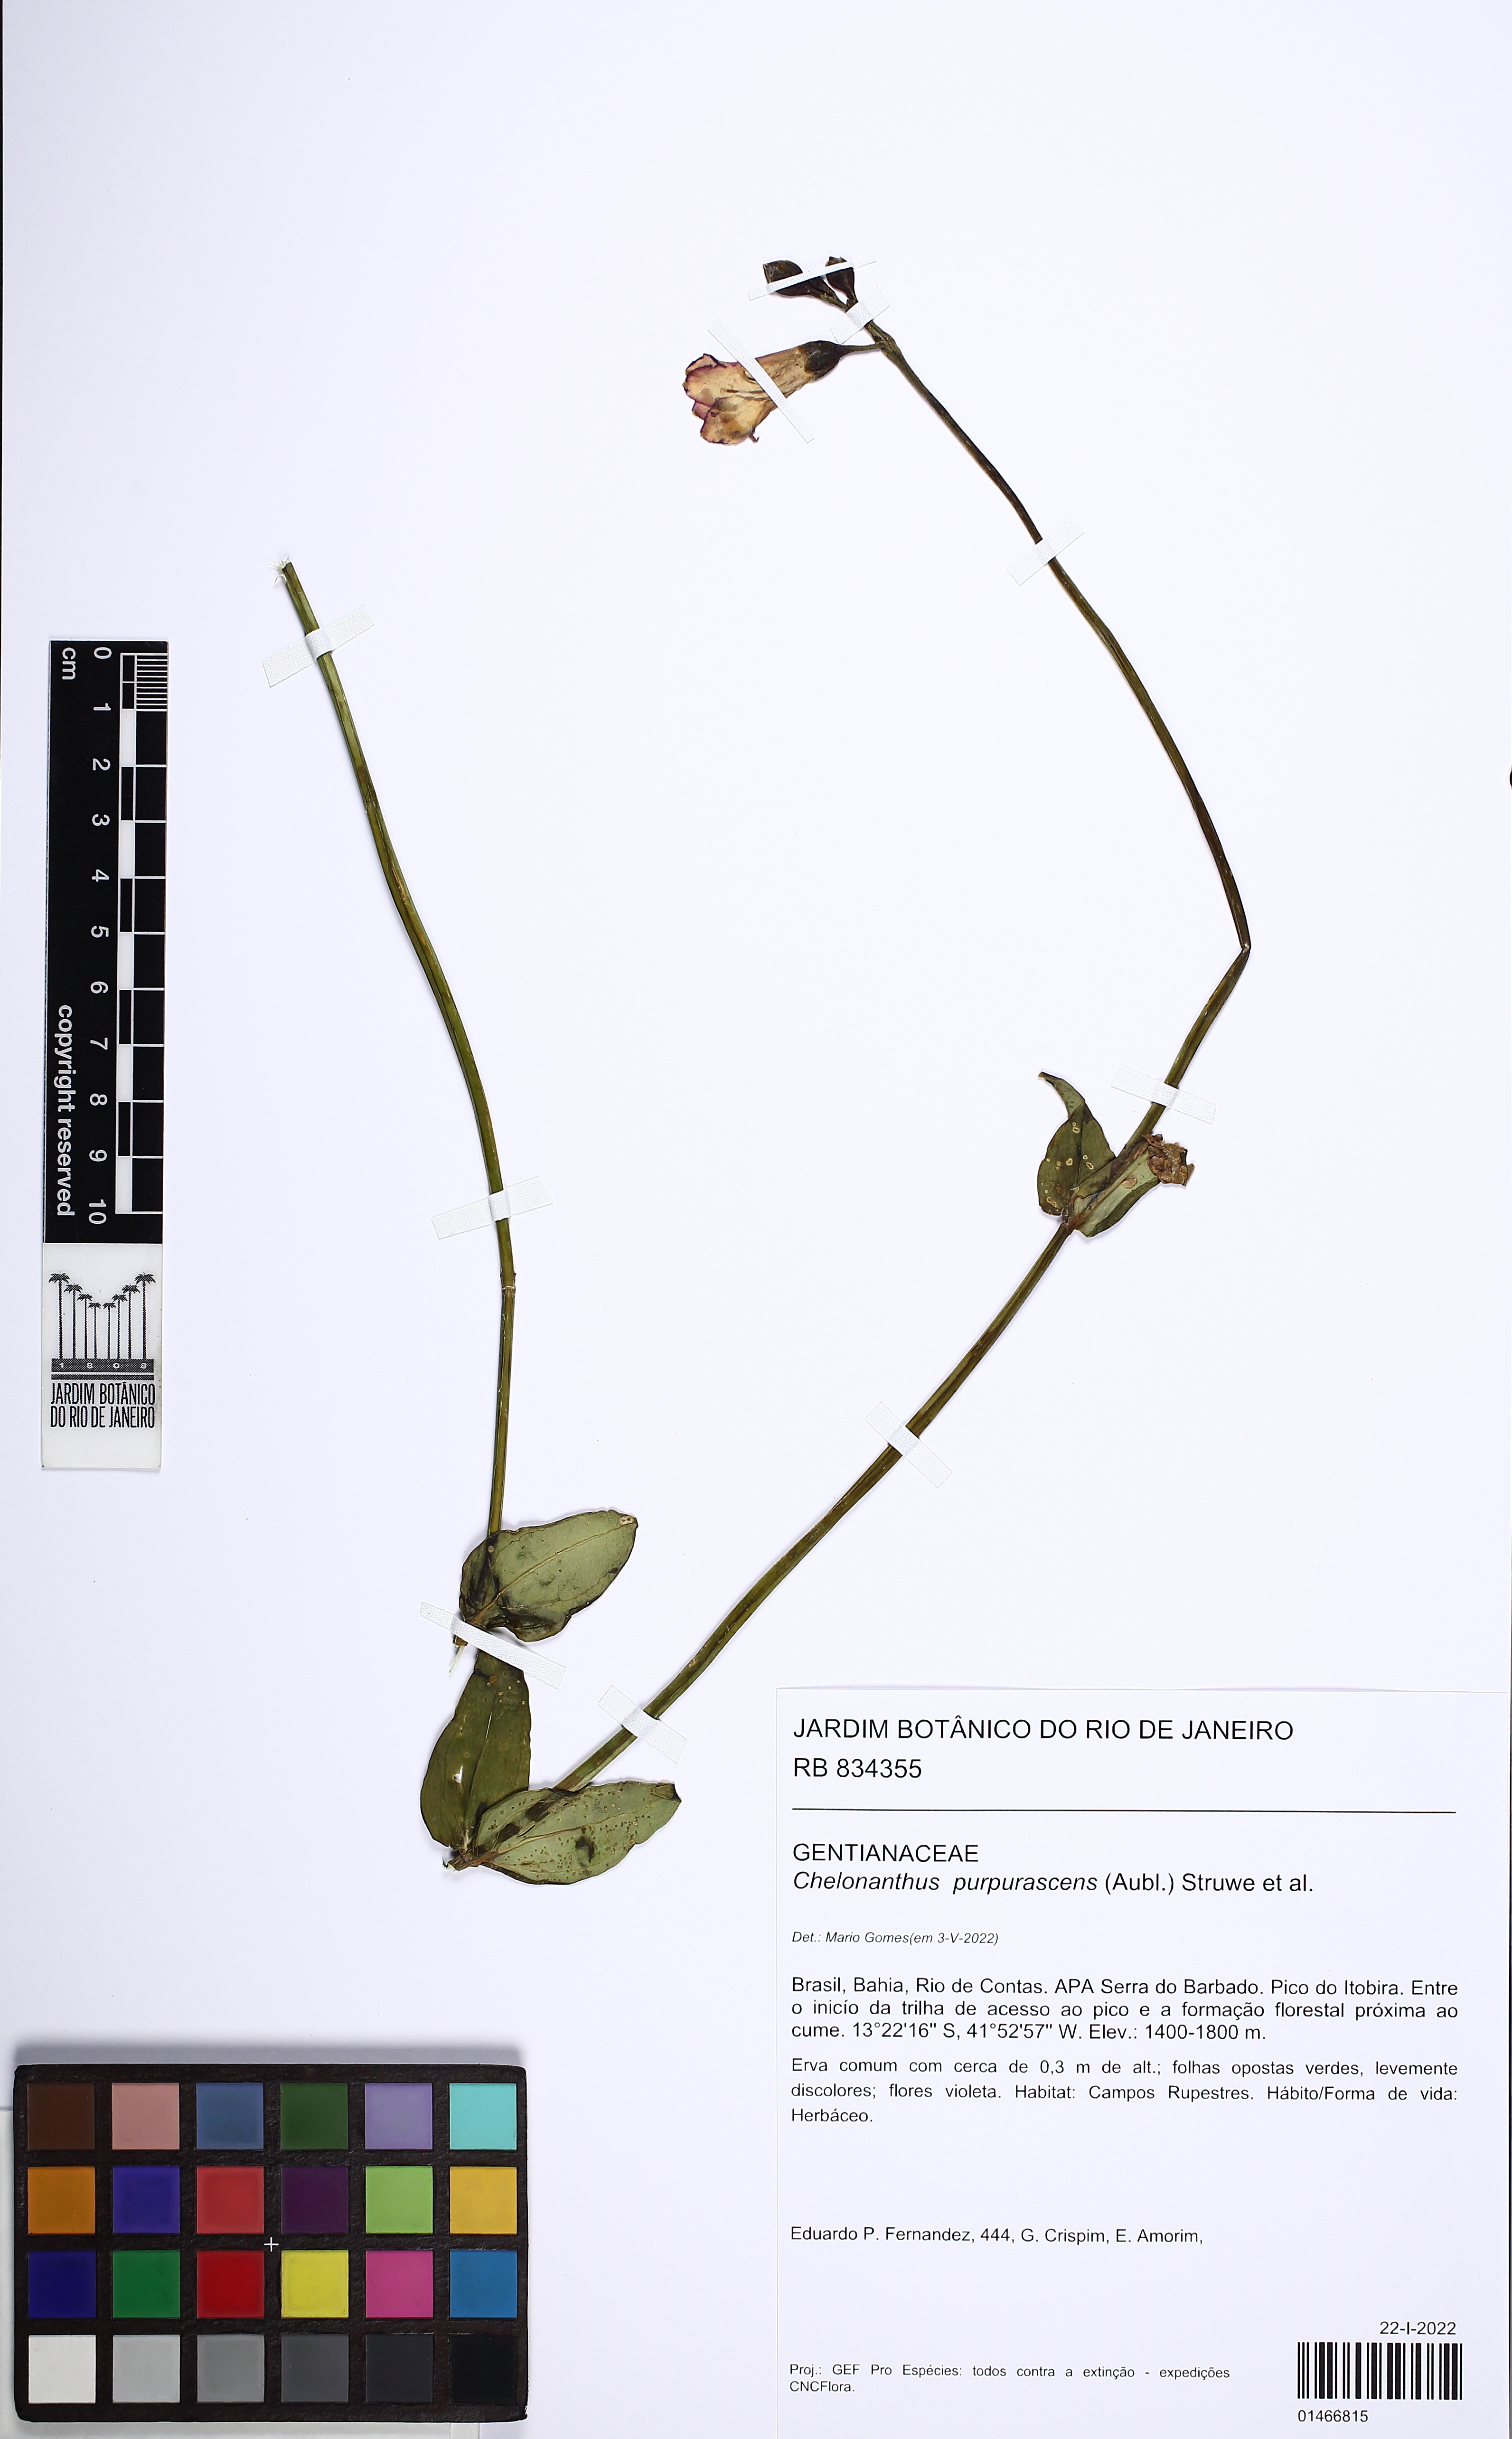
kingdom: Plantae
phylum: Tracheophyta
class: Magnoliopsida
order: Gentianales
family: Gentianaceae
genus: Chelonanthus
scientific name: Chelonanthus purpurascens
